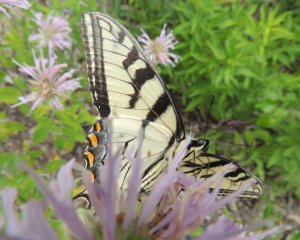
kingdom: Animalia
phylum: Arthropoda
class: Insecta
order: Lepidoptera
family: Papilionidae
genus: Pterourus
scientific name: Pterourus glaucus
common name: Eastern Tiger Swallowtail
